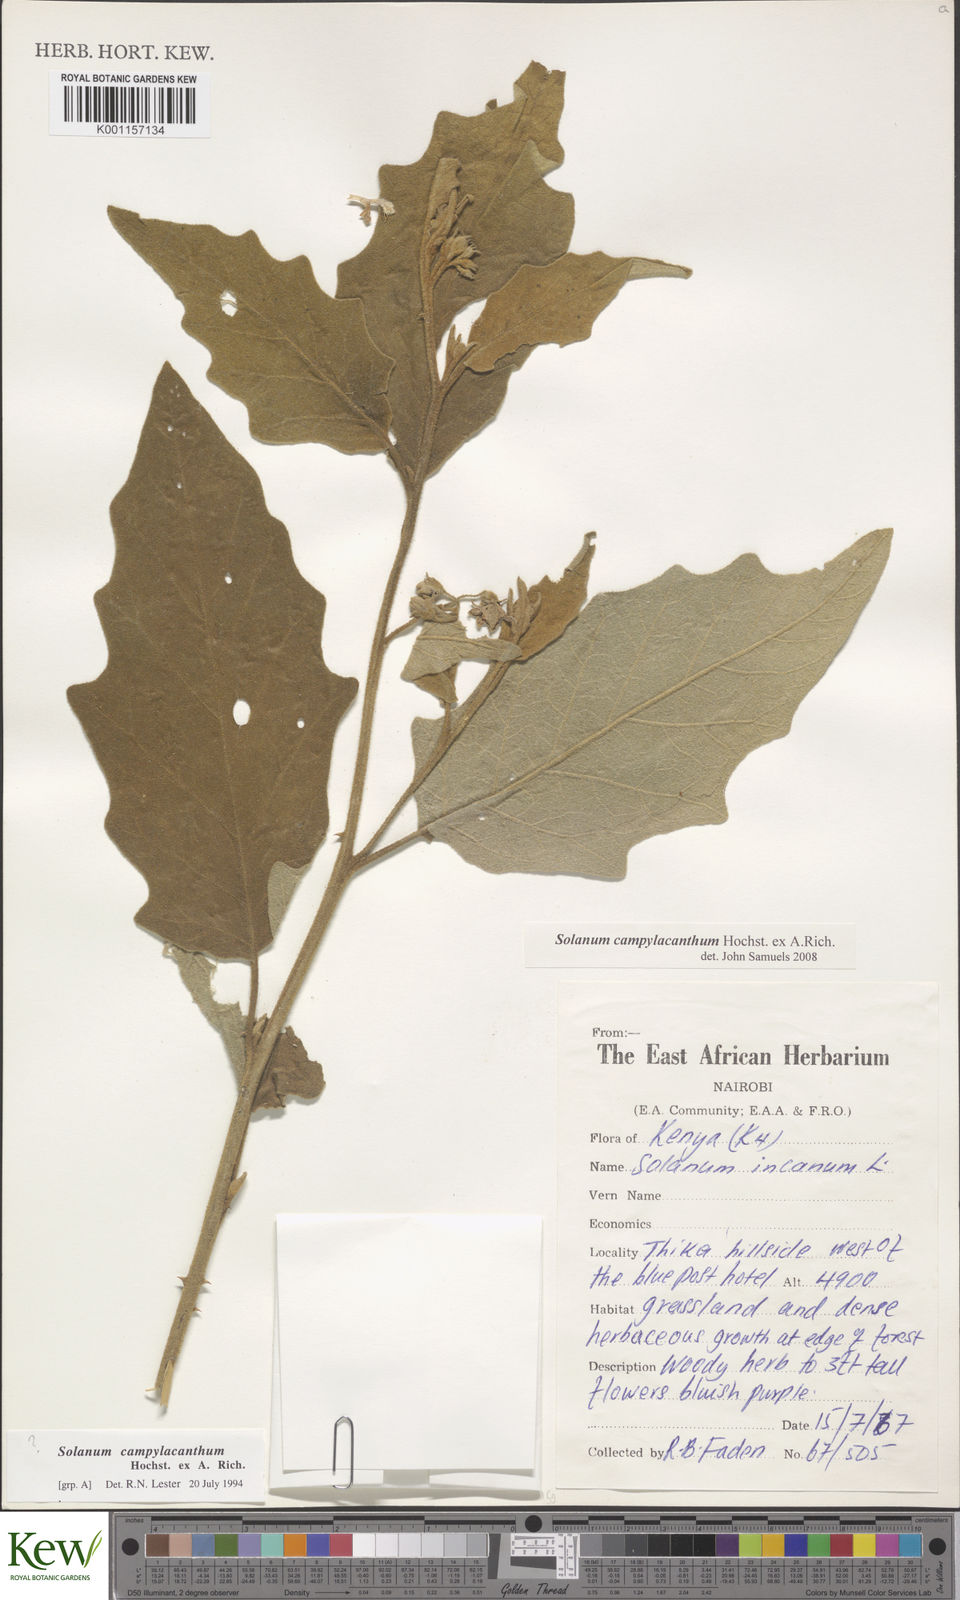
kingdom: Plantae
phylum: Tracheophyta
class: Magnoliopsida
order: Solanales
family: Solanaceae
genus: Solanum
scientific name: Solanum campylacanthum
